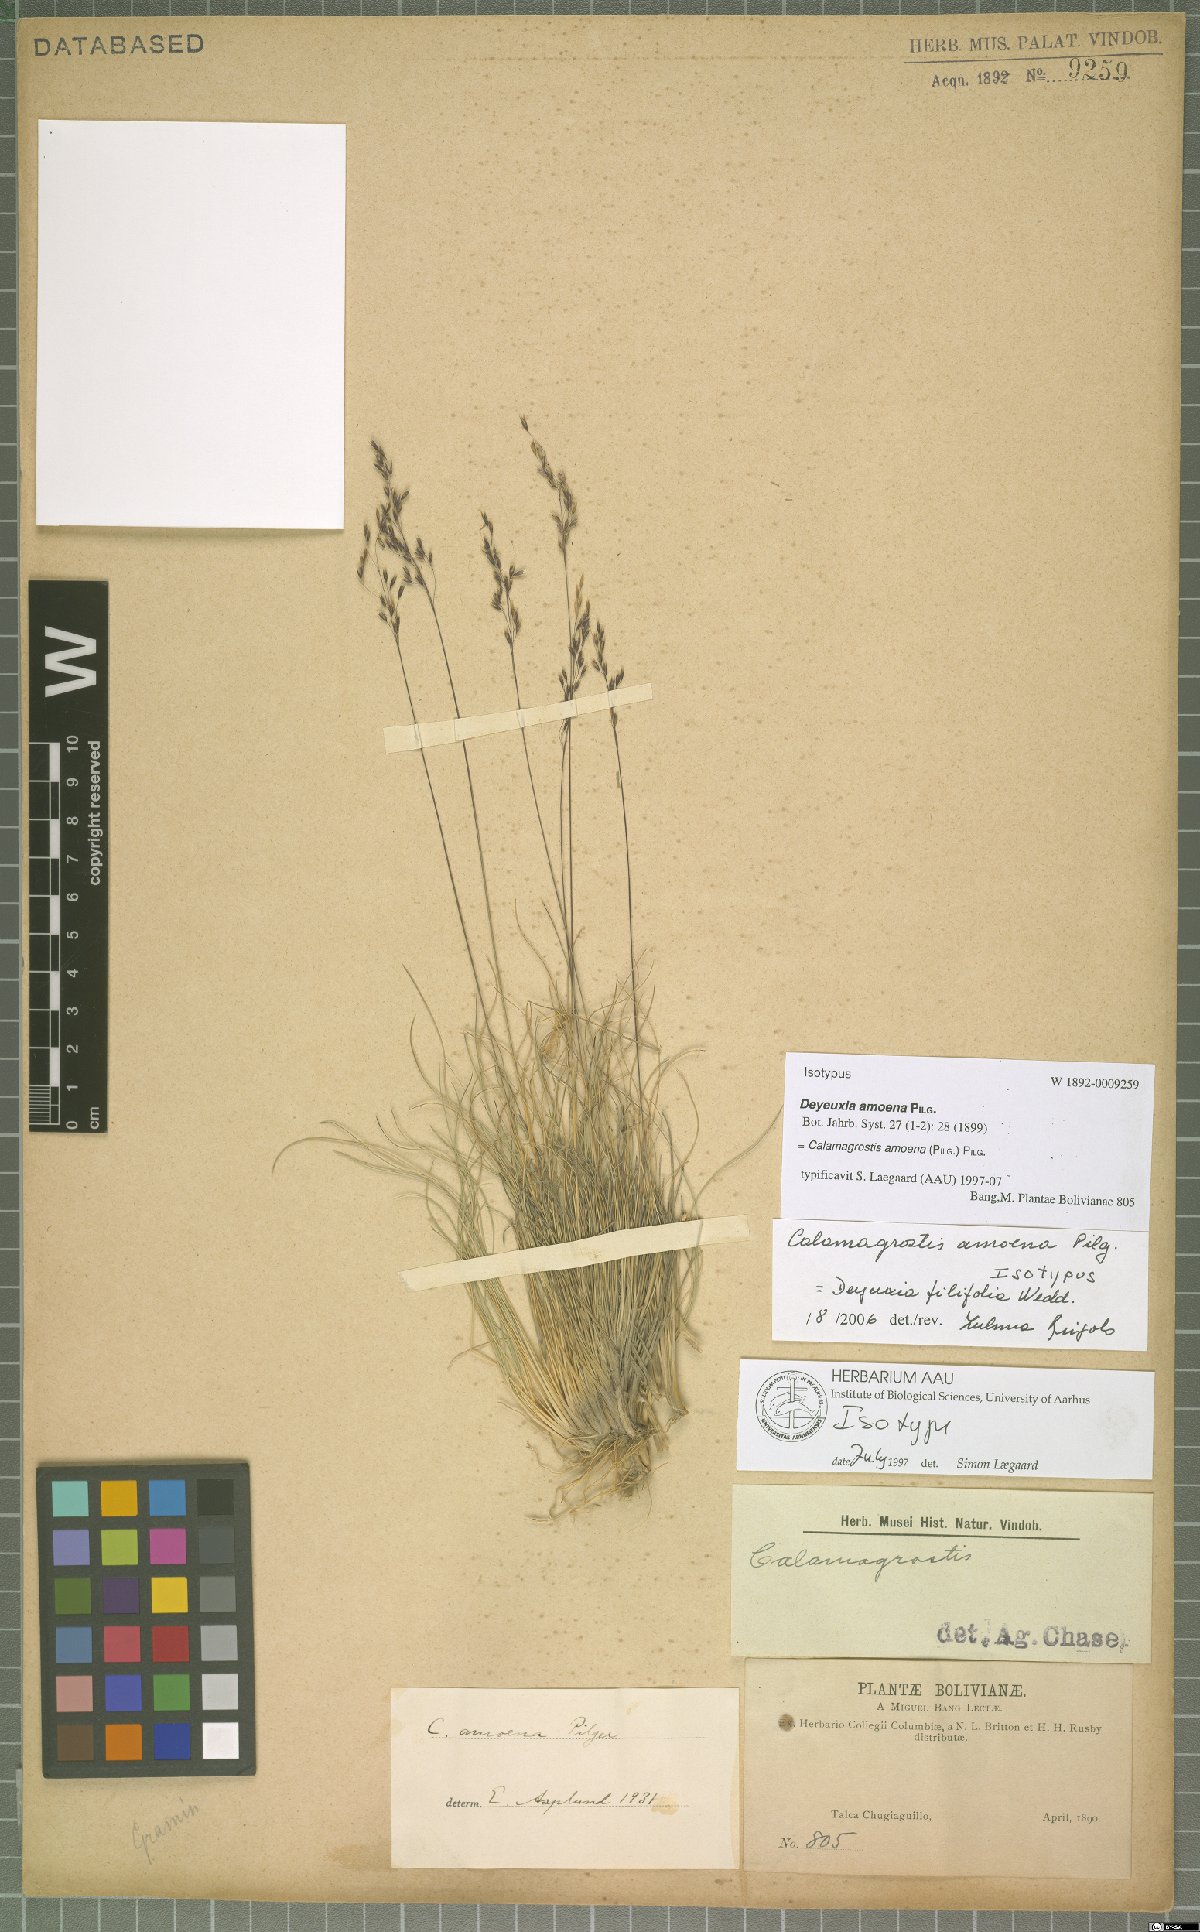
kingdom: Plantae
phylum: Tracheophyta
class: Liliopsida
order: Poales
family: Poaceae
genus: Cinnagrostis
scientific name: Cinnagrostis filifolia
